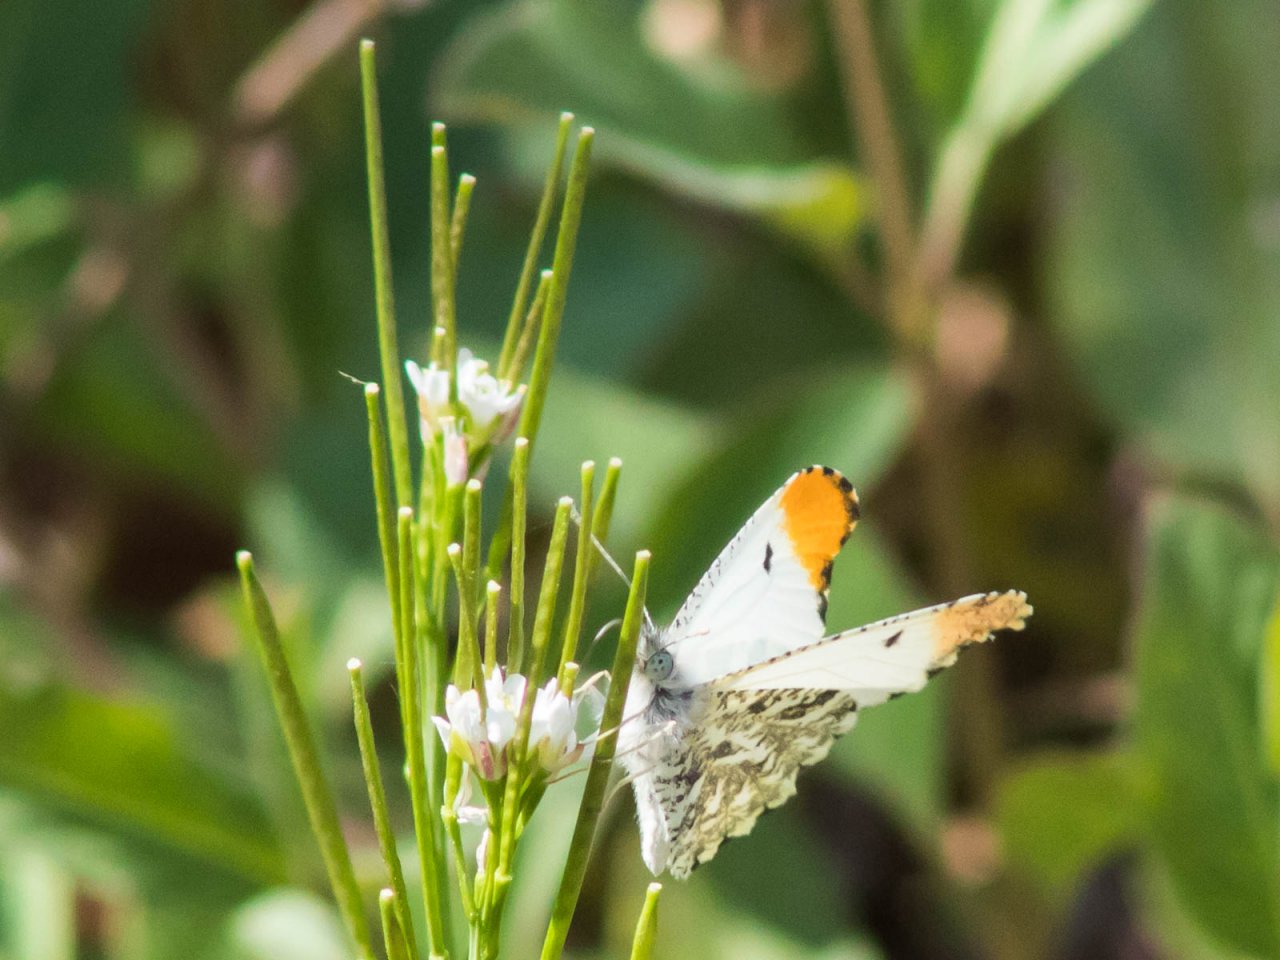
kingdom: Animalia
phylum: Arthropoda
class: Insecta
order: Lepidoptera
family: Pieridae
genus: Anthocharis
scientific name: Anthocharis midea
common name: Falcate Orangetip
